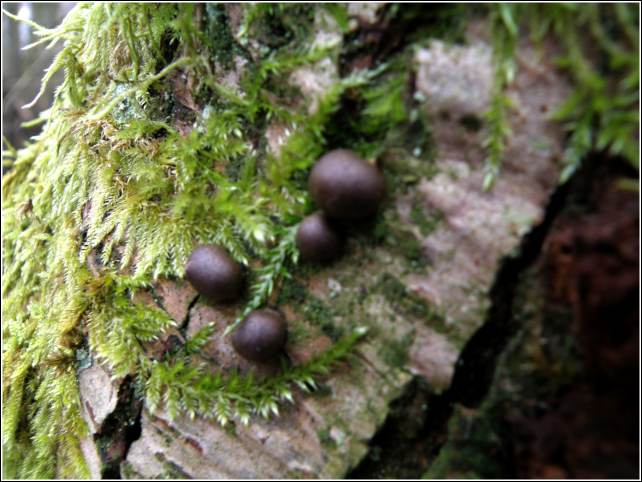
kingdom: Protozoa
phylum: Mycetozoa
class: Myxomycetes
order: Cribrariales
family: Tubiferaceae
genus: Lycogala
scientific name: Lycogala epidendrum
